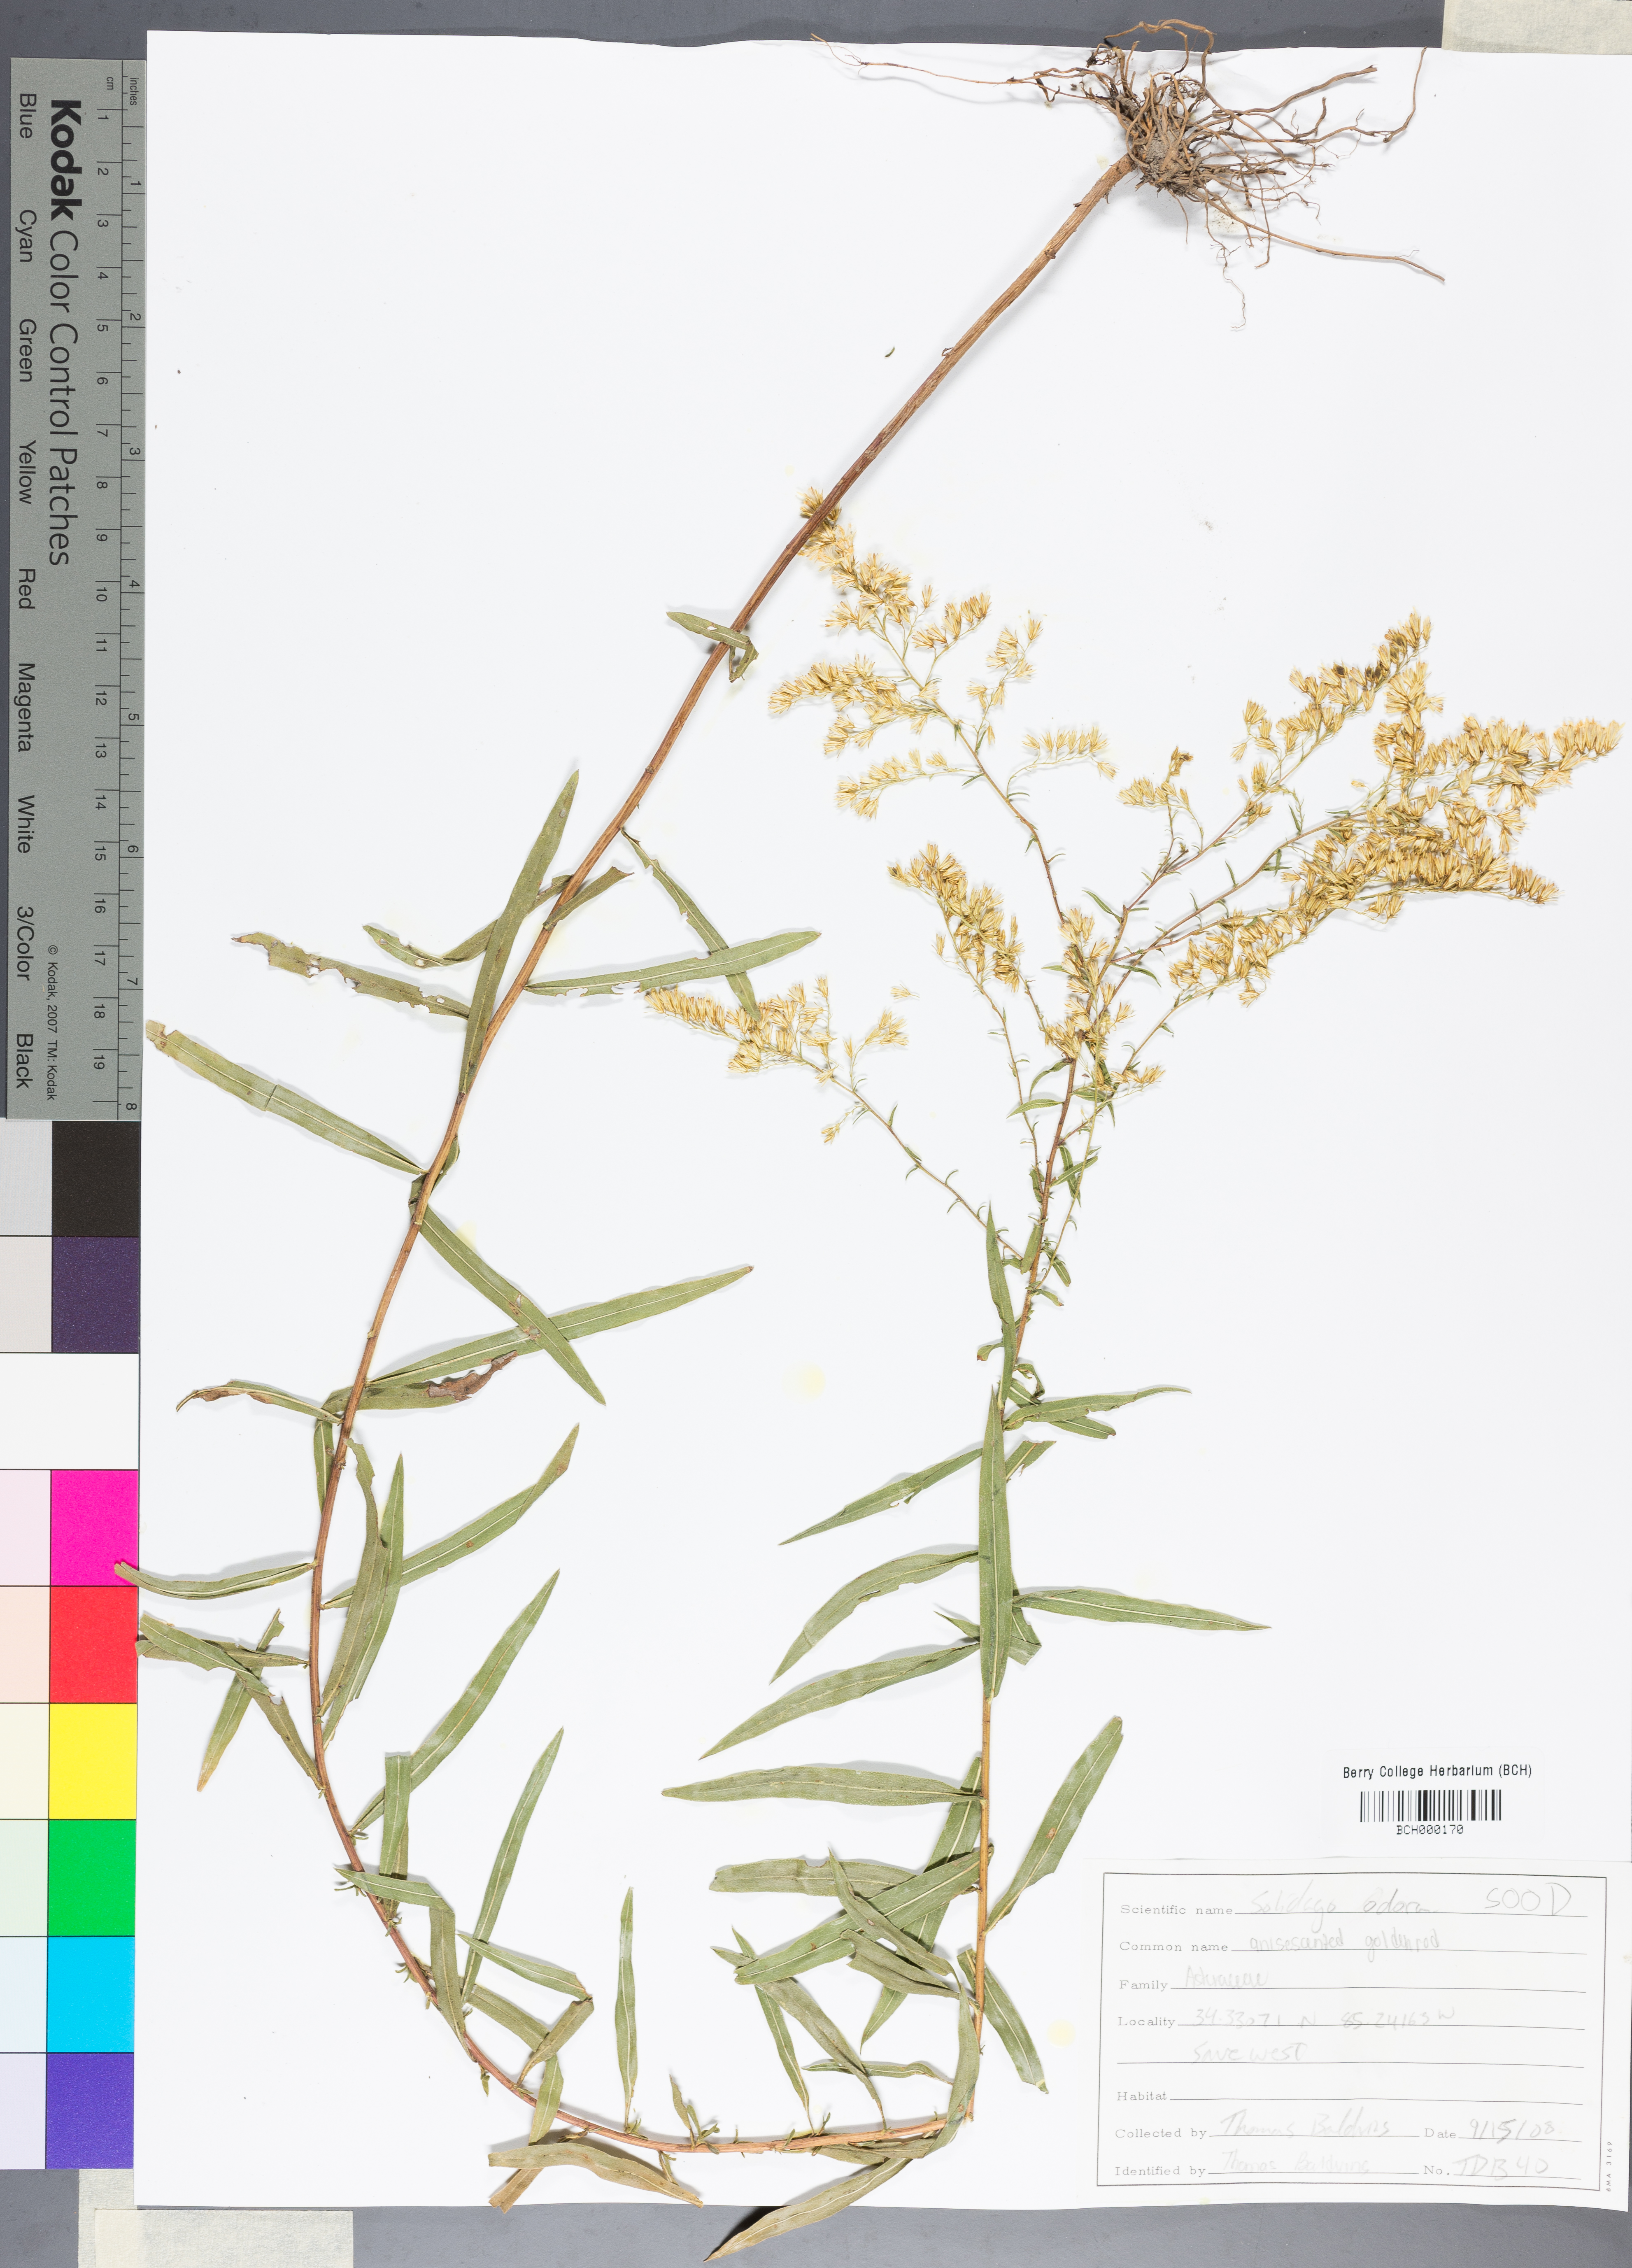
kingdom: Plantae
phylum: Tracheophyta
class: Magnoliopsida
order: Asterales
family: Asteraceae
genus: Solidago
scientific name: Solidago odora
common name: Anise-scented goldenrod
